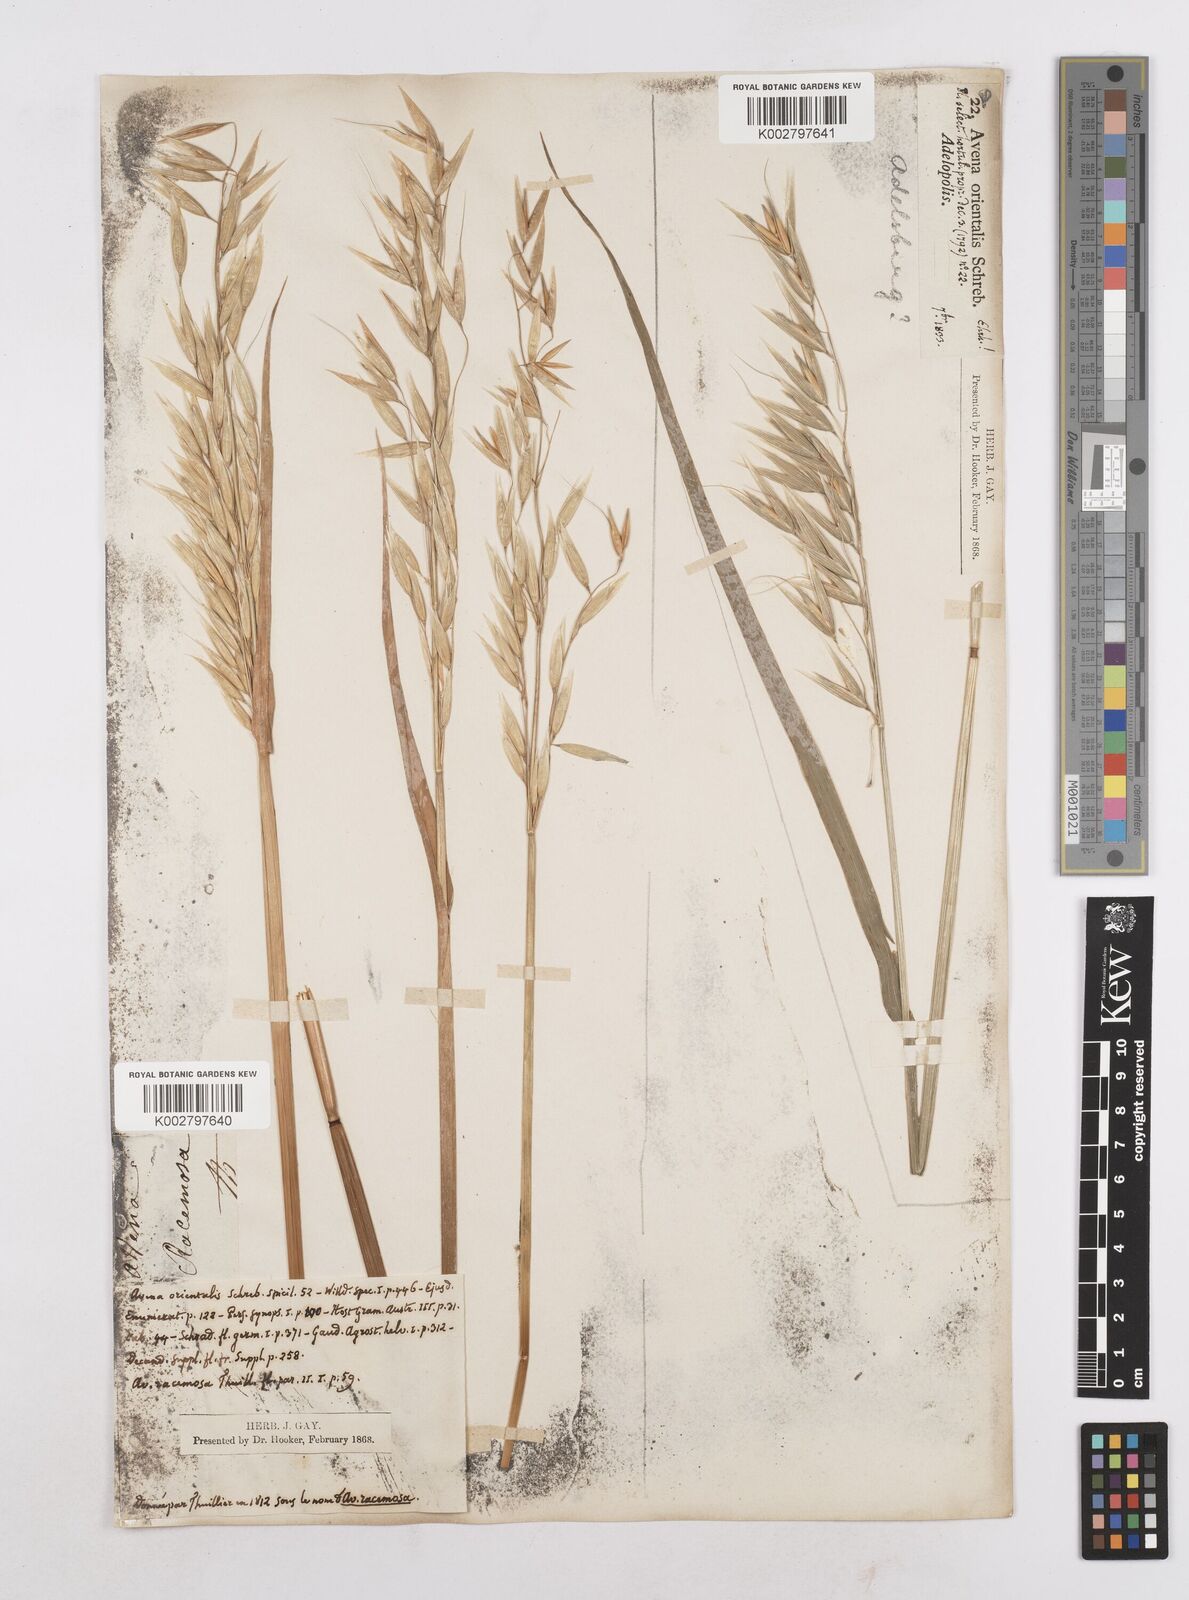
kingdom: Plantae
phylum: Tracheophyta
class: Liliopsida
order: Poales
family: Poaceae
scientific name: Poaceae
